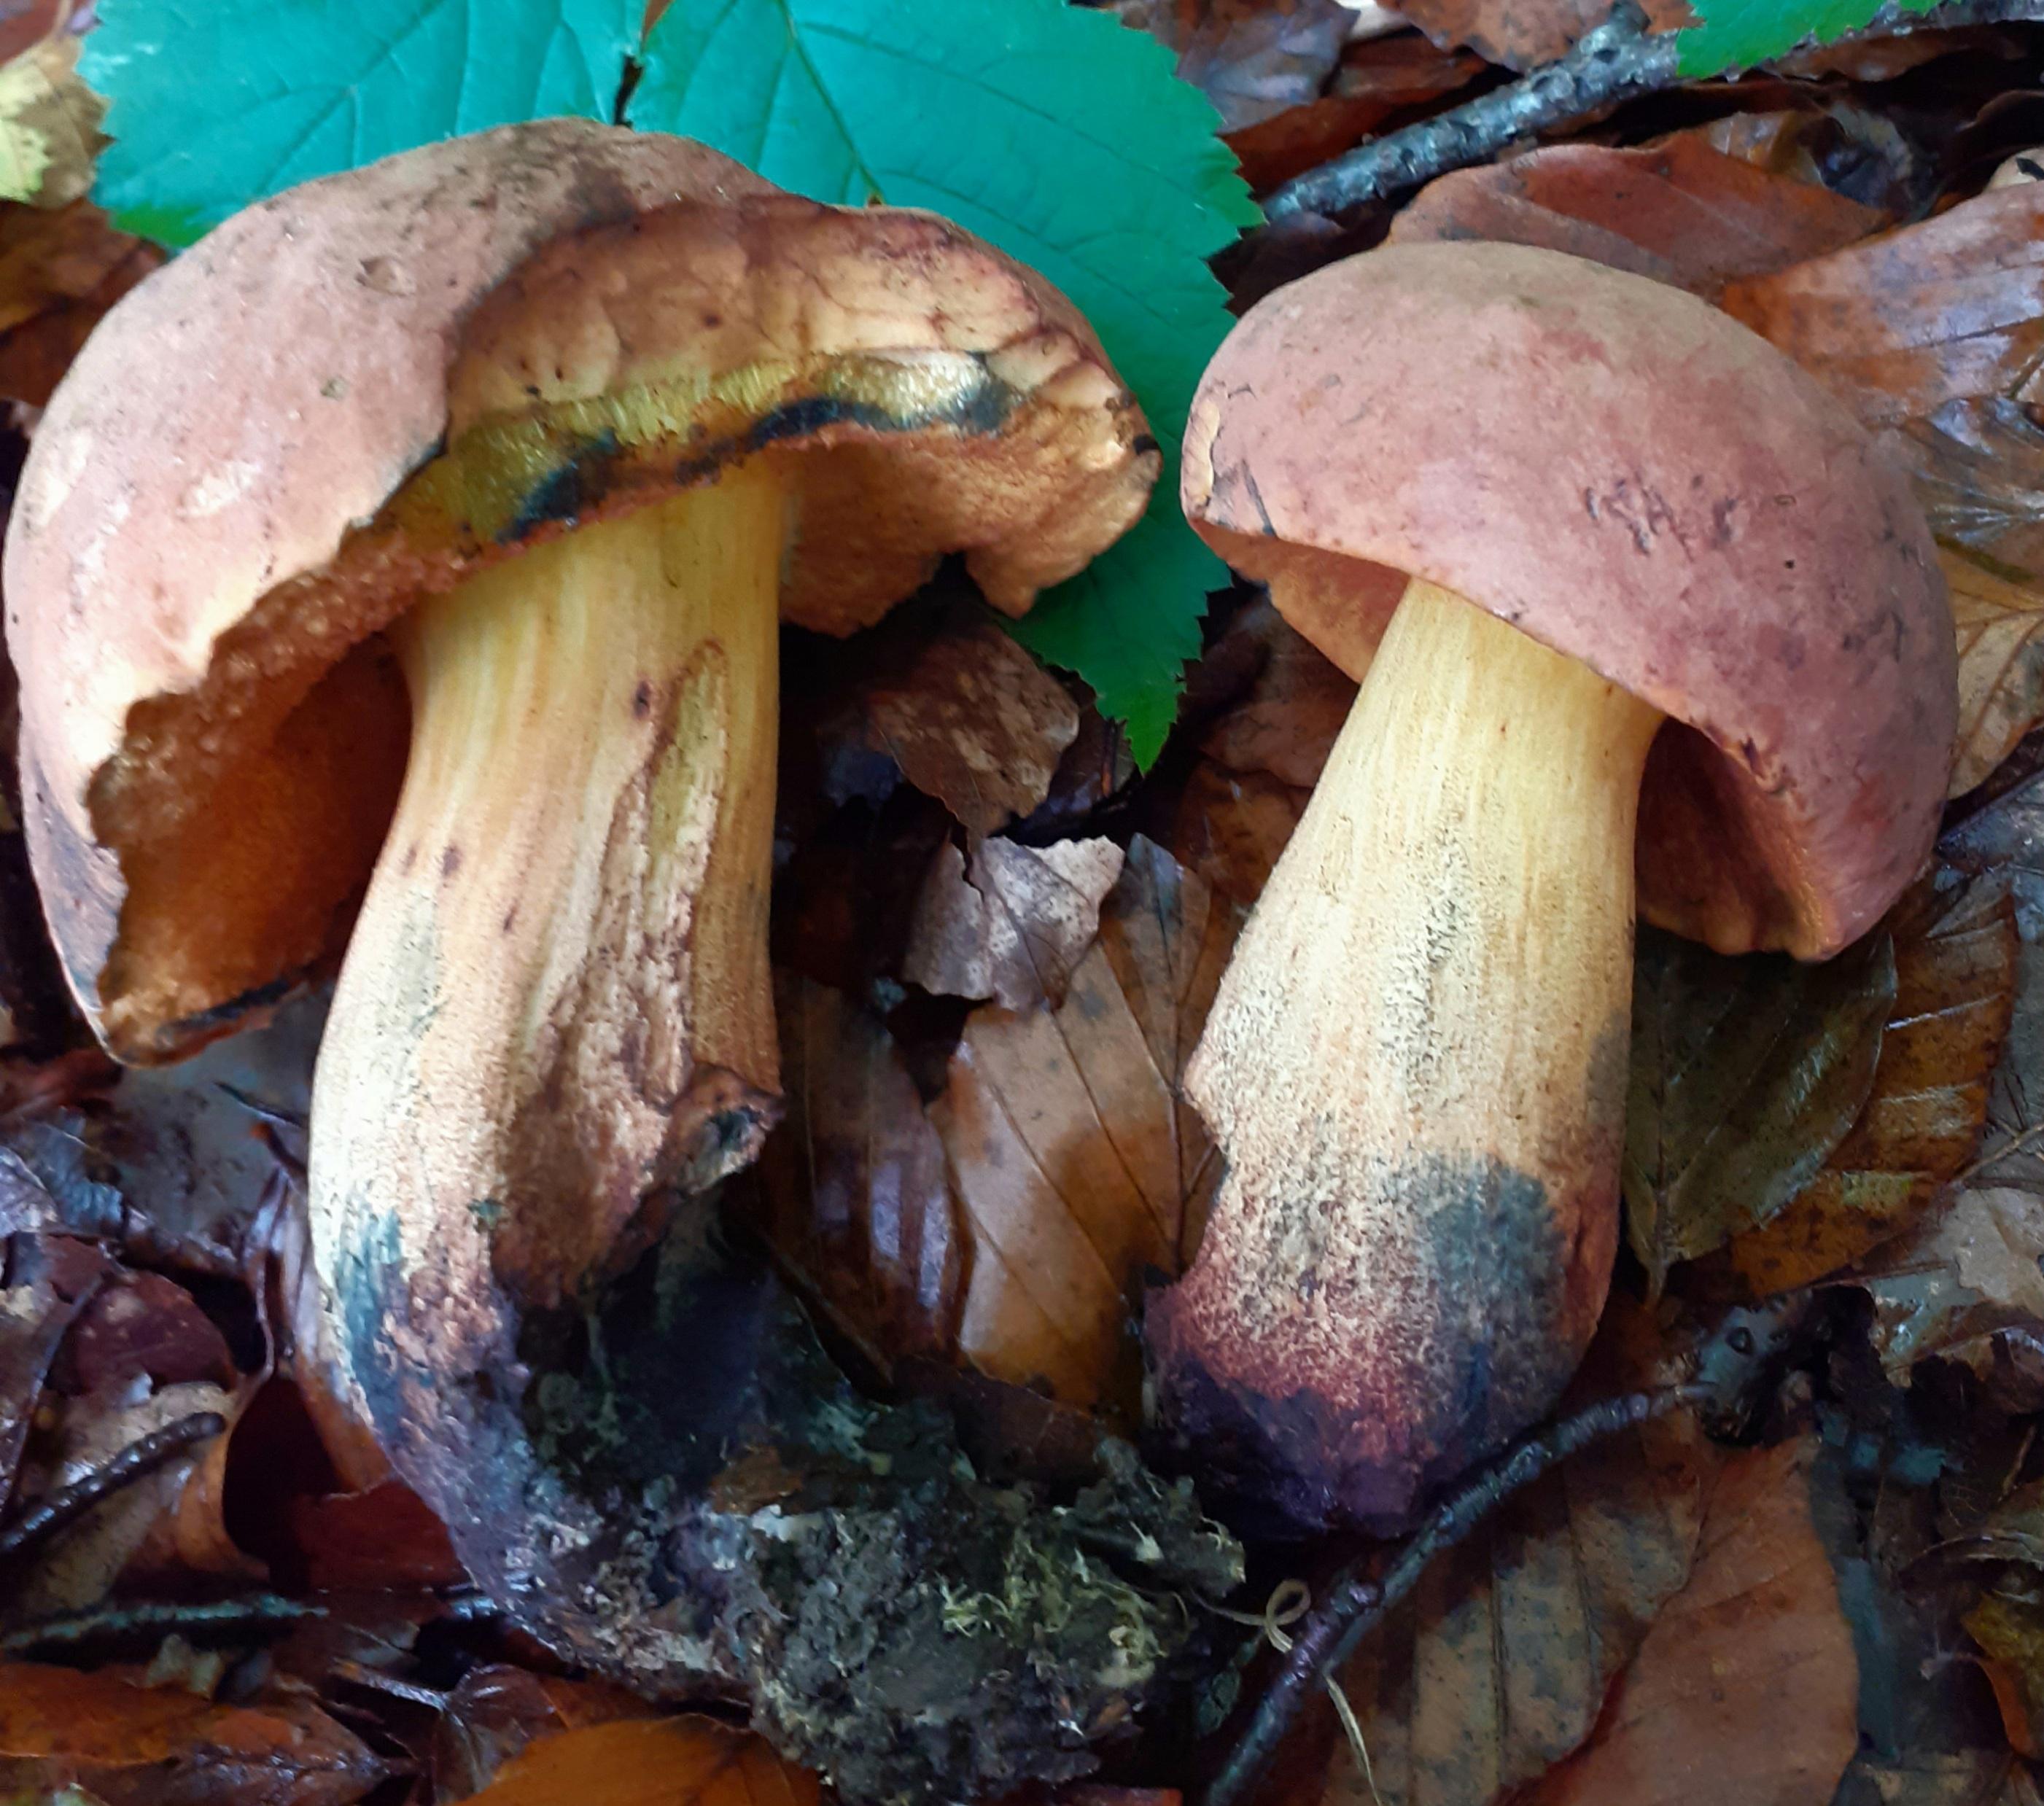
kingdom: Fungi
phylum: Basidiomycota
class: Agaricomycetes
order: Boletales
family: Boletaceae
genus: Suillellus
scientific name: Suillellus queletii
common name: glatstokket indigorørhat
